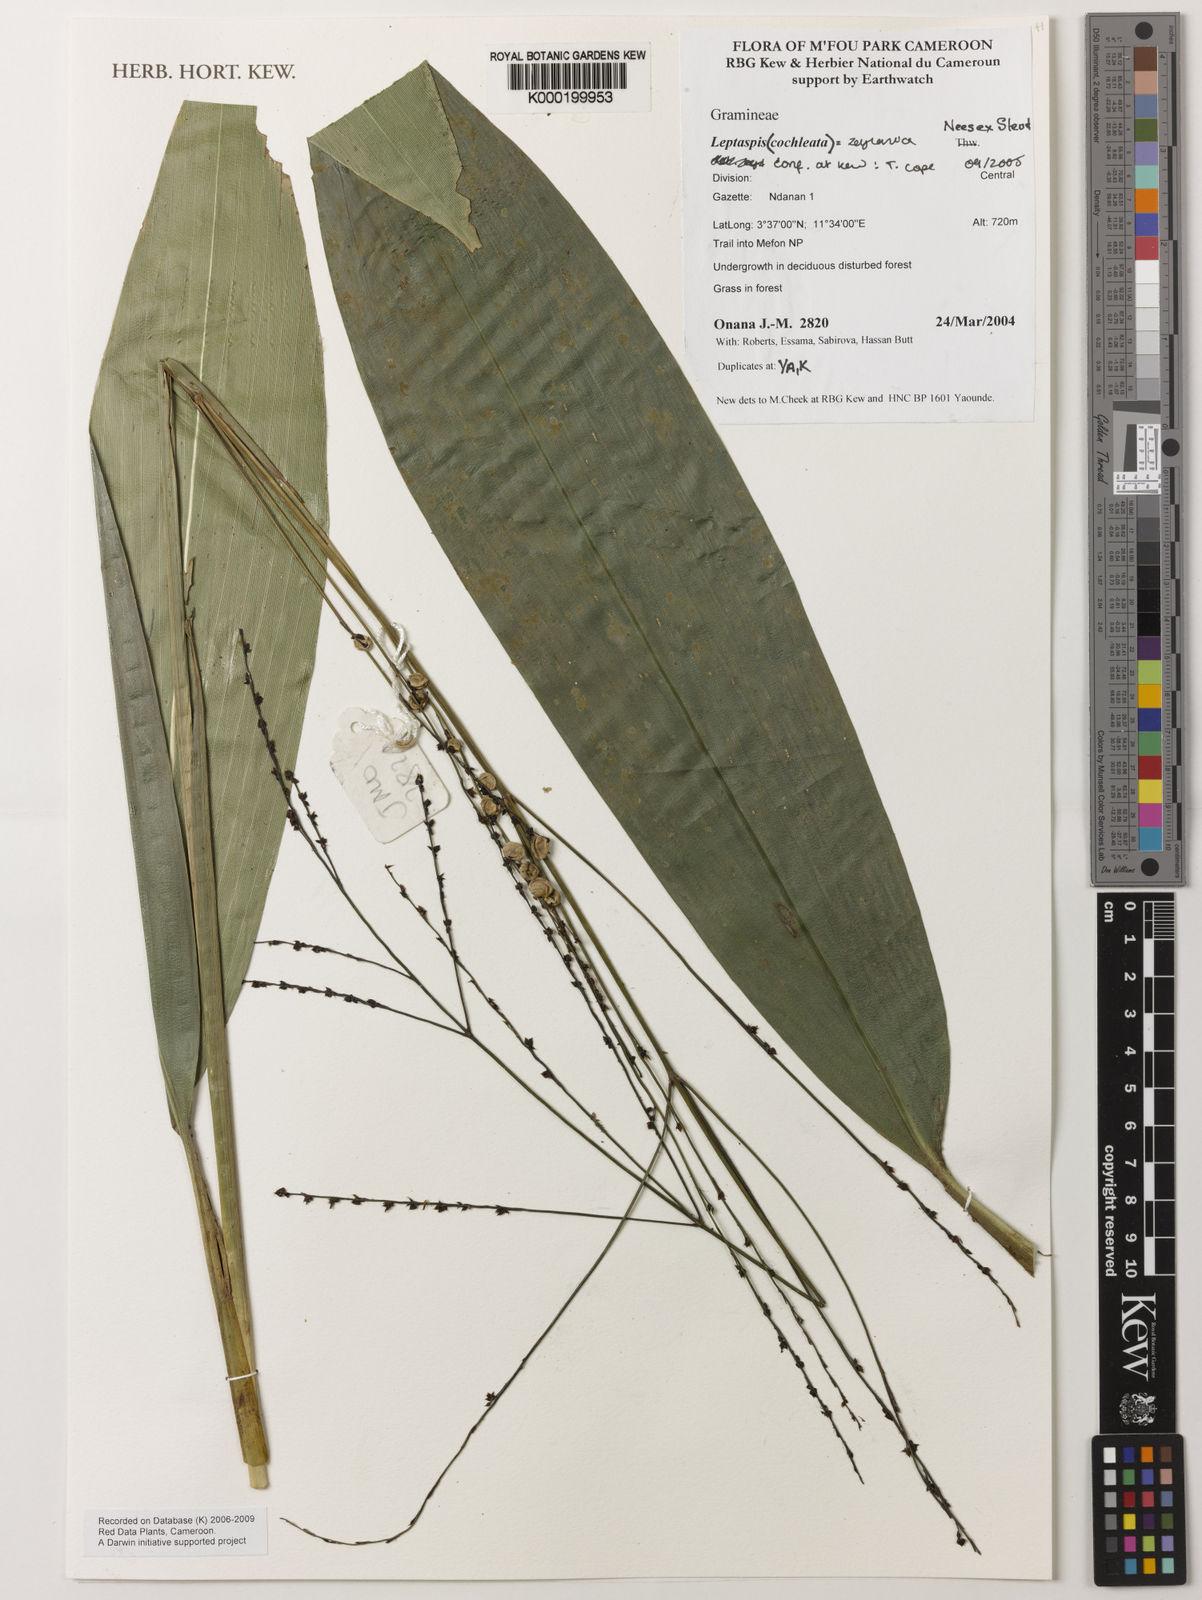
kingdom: Plantae
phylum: Tracheophyta
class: Liliopsida
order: Poales
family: Poaceae
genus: Leptaspis
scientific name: Leptaspis zeylanica
